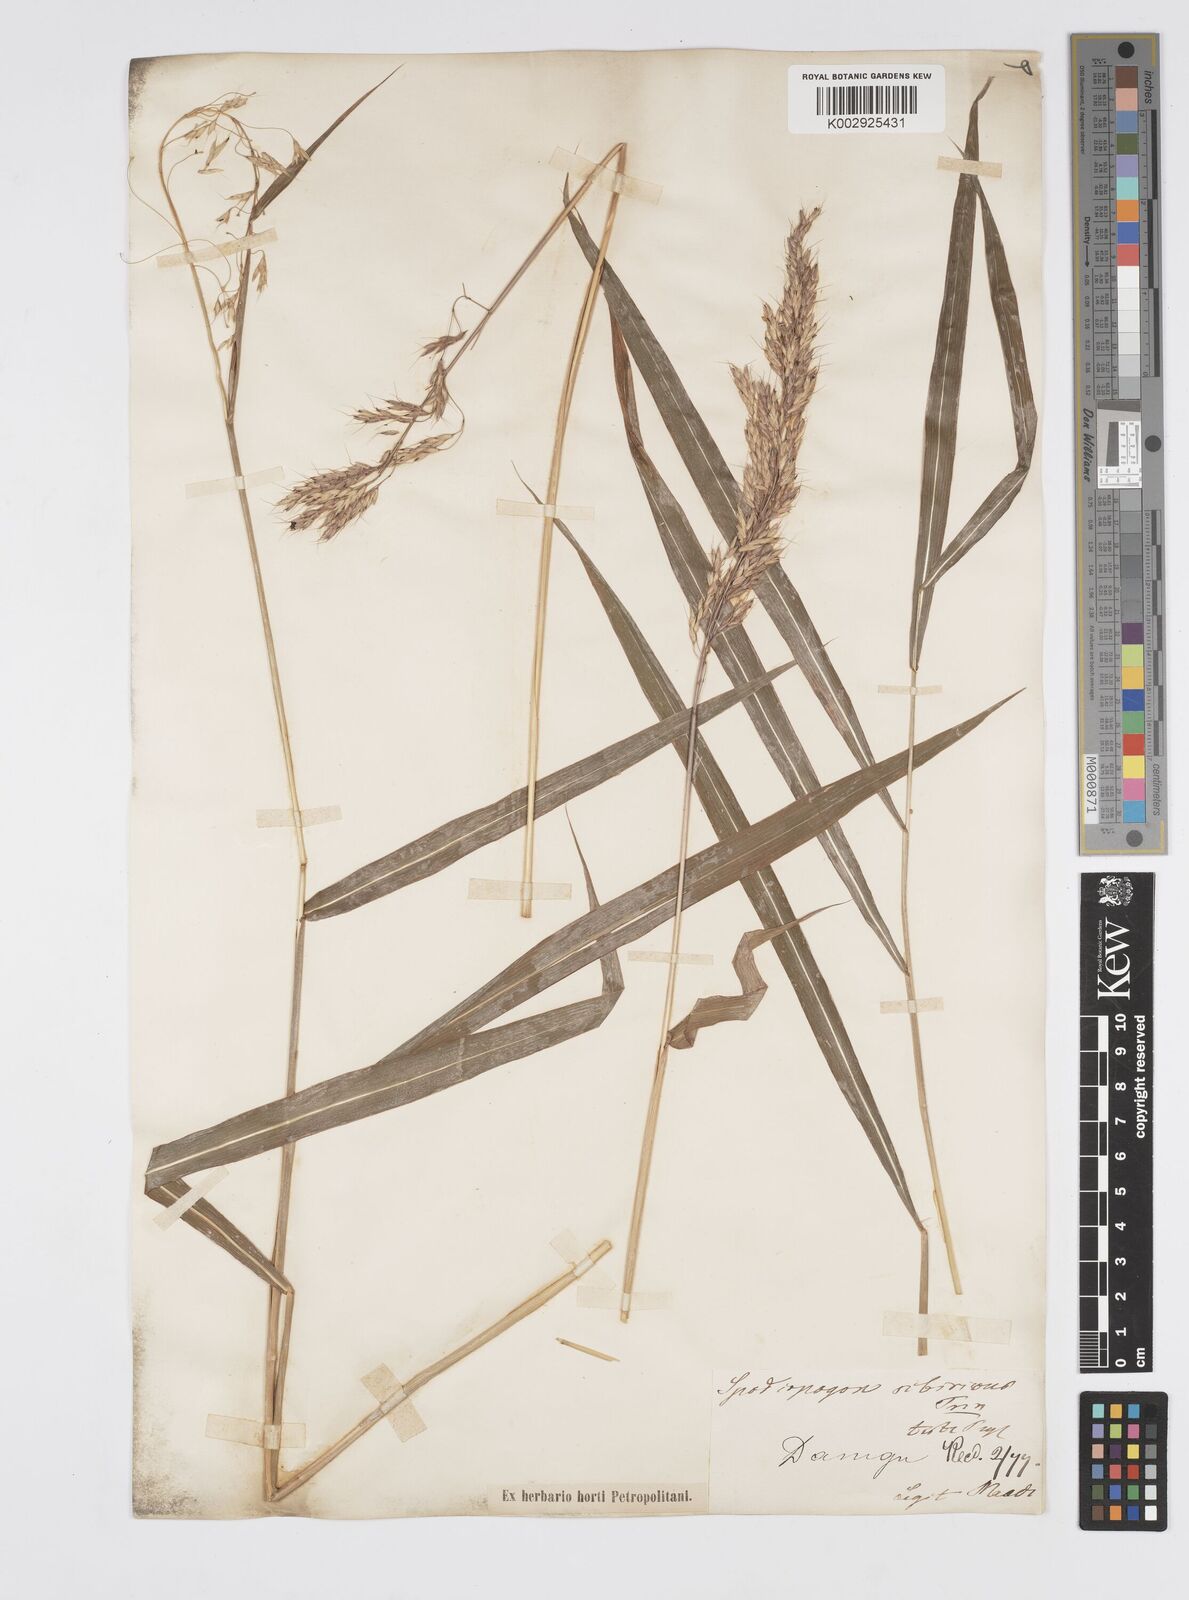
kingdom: Plantae
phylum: Tracheophyta
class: Liliopsida
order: Poales
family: Poaceae
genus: Spodiopogon
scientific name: Spodiopogon sibiricus
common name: Siberian graybeard
